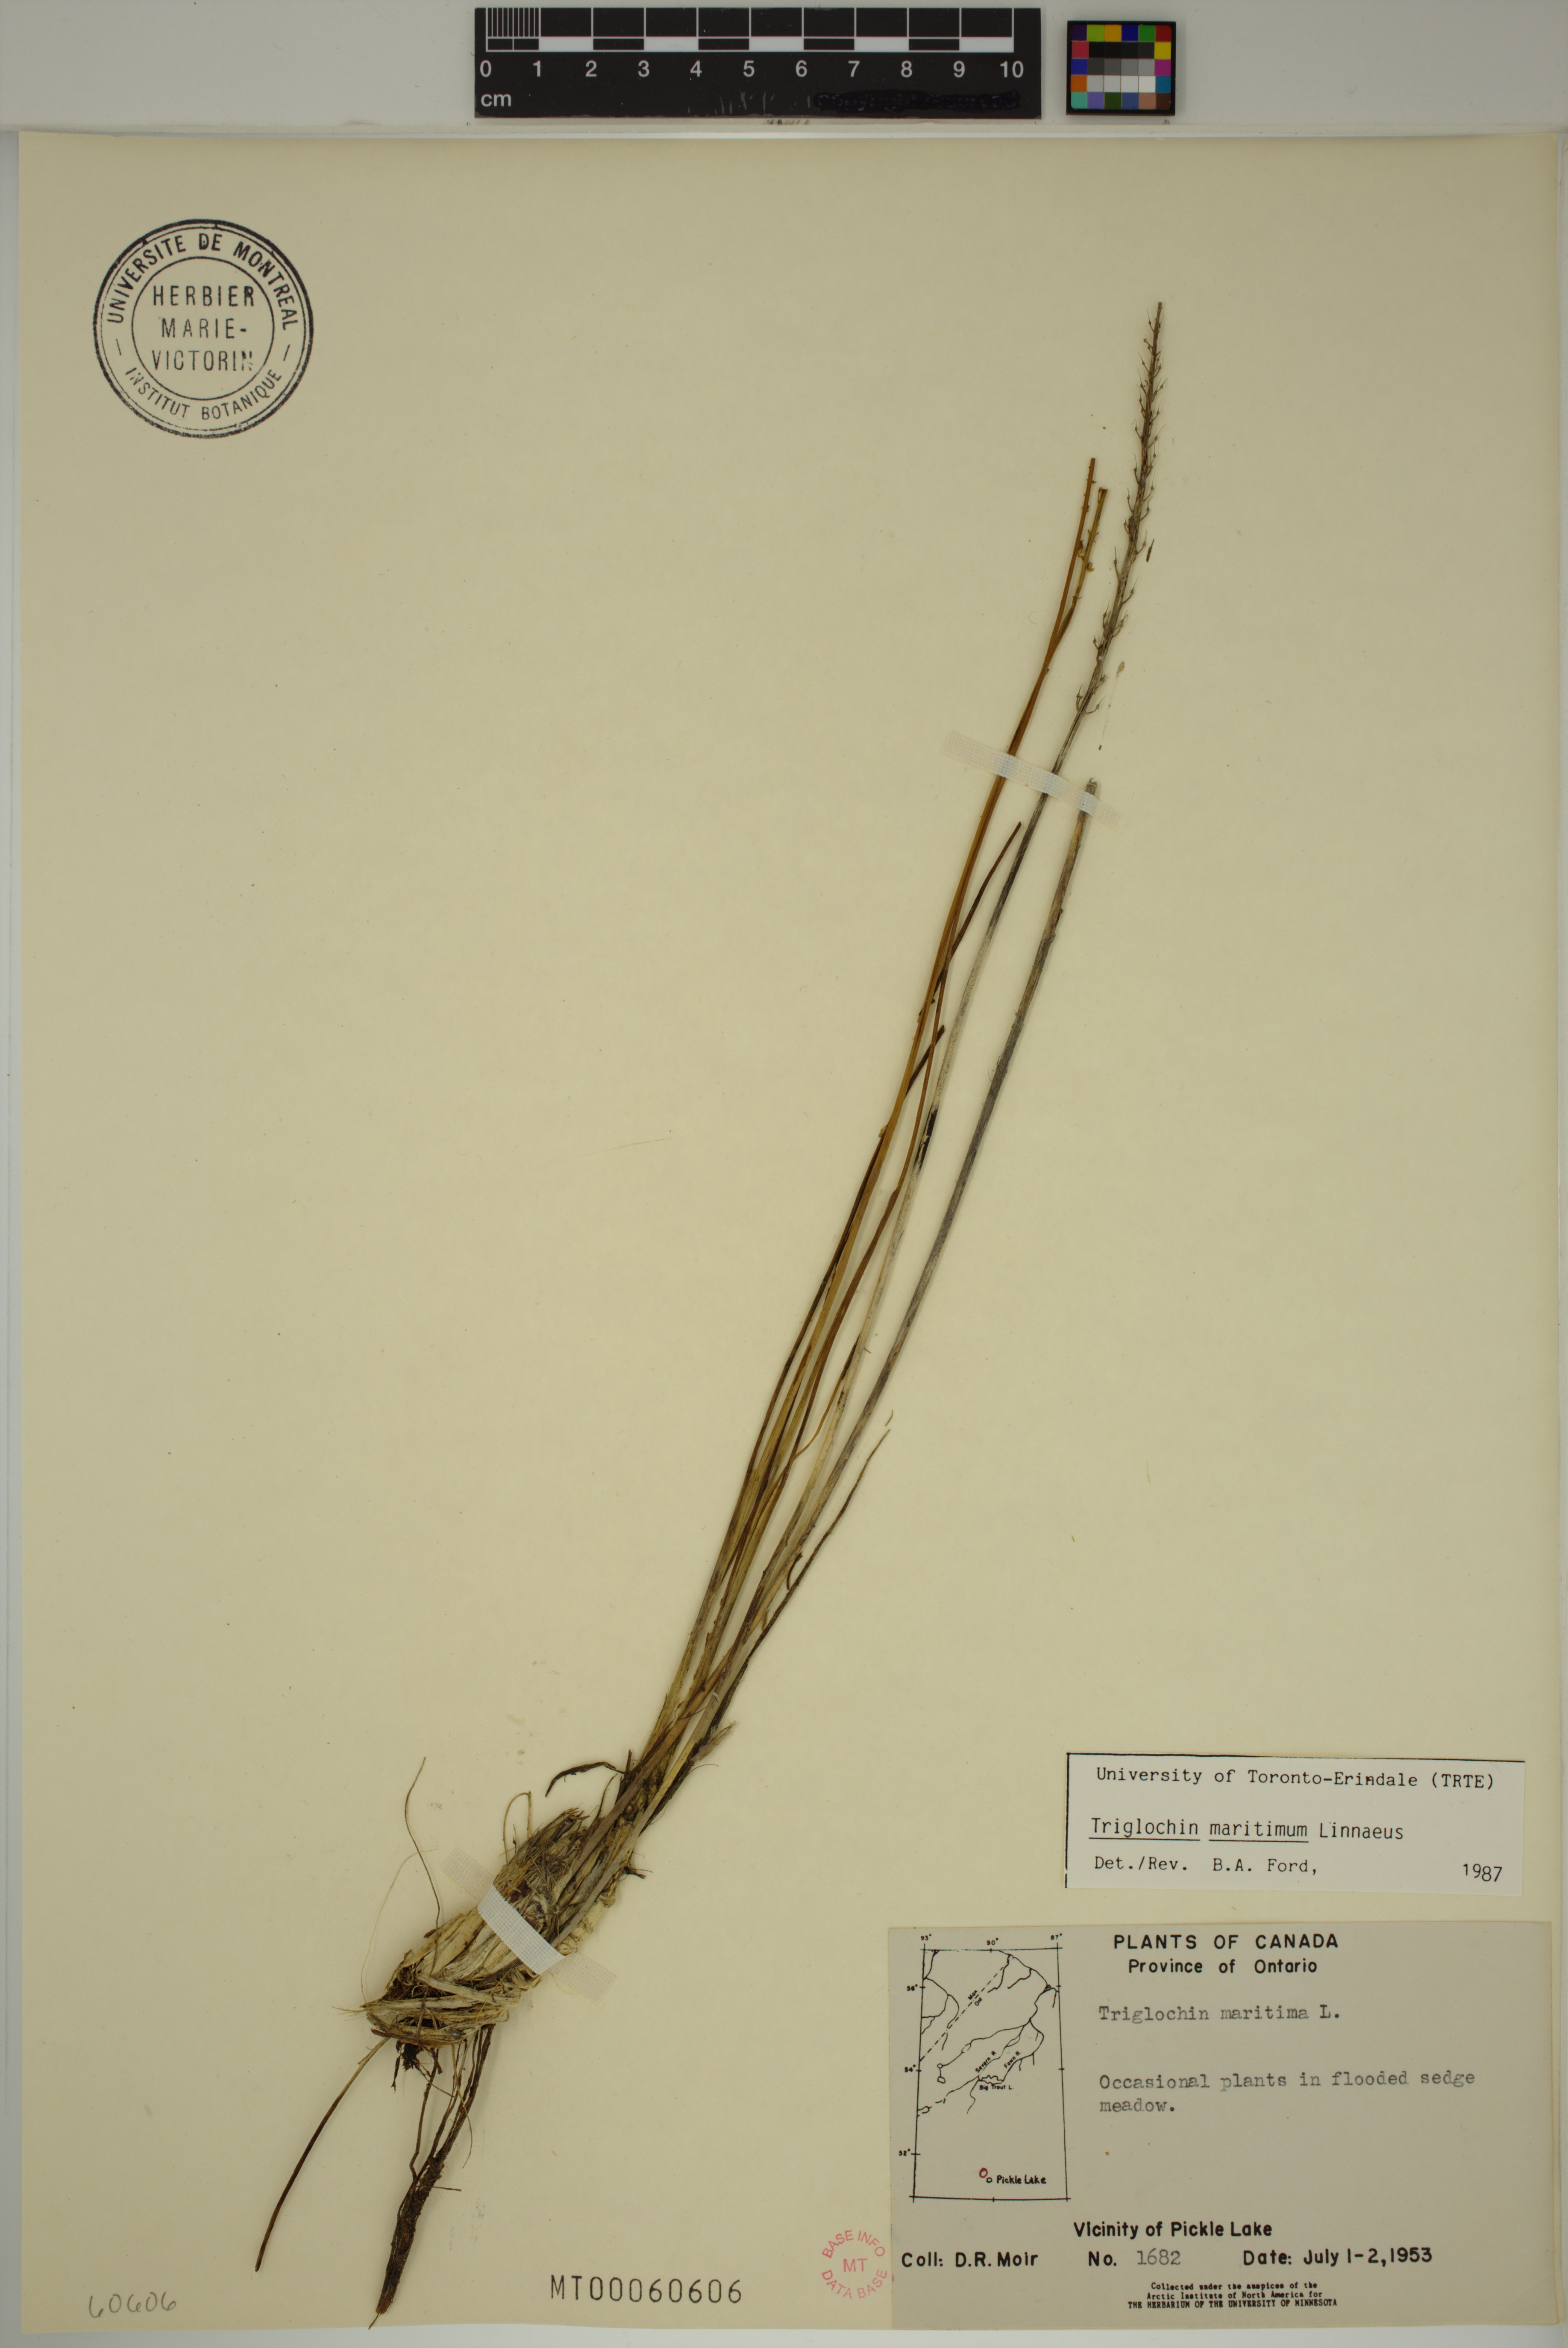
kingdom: Plantae
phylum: Tracheophyta
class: Liliopsida
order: Alismatales
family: Juncaginaceae
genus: Triglochin
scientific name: Triglochin maritima
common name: Sea arrowgrass
